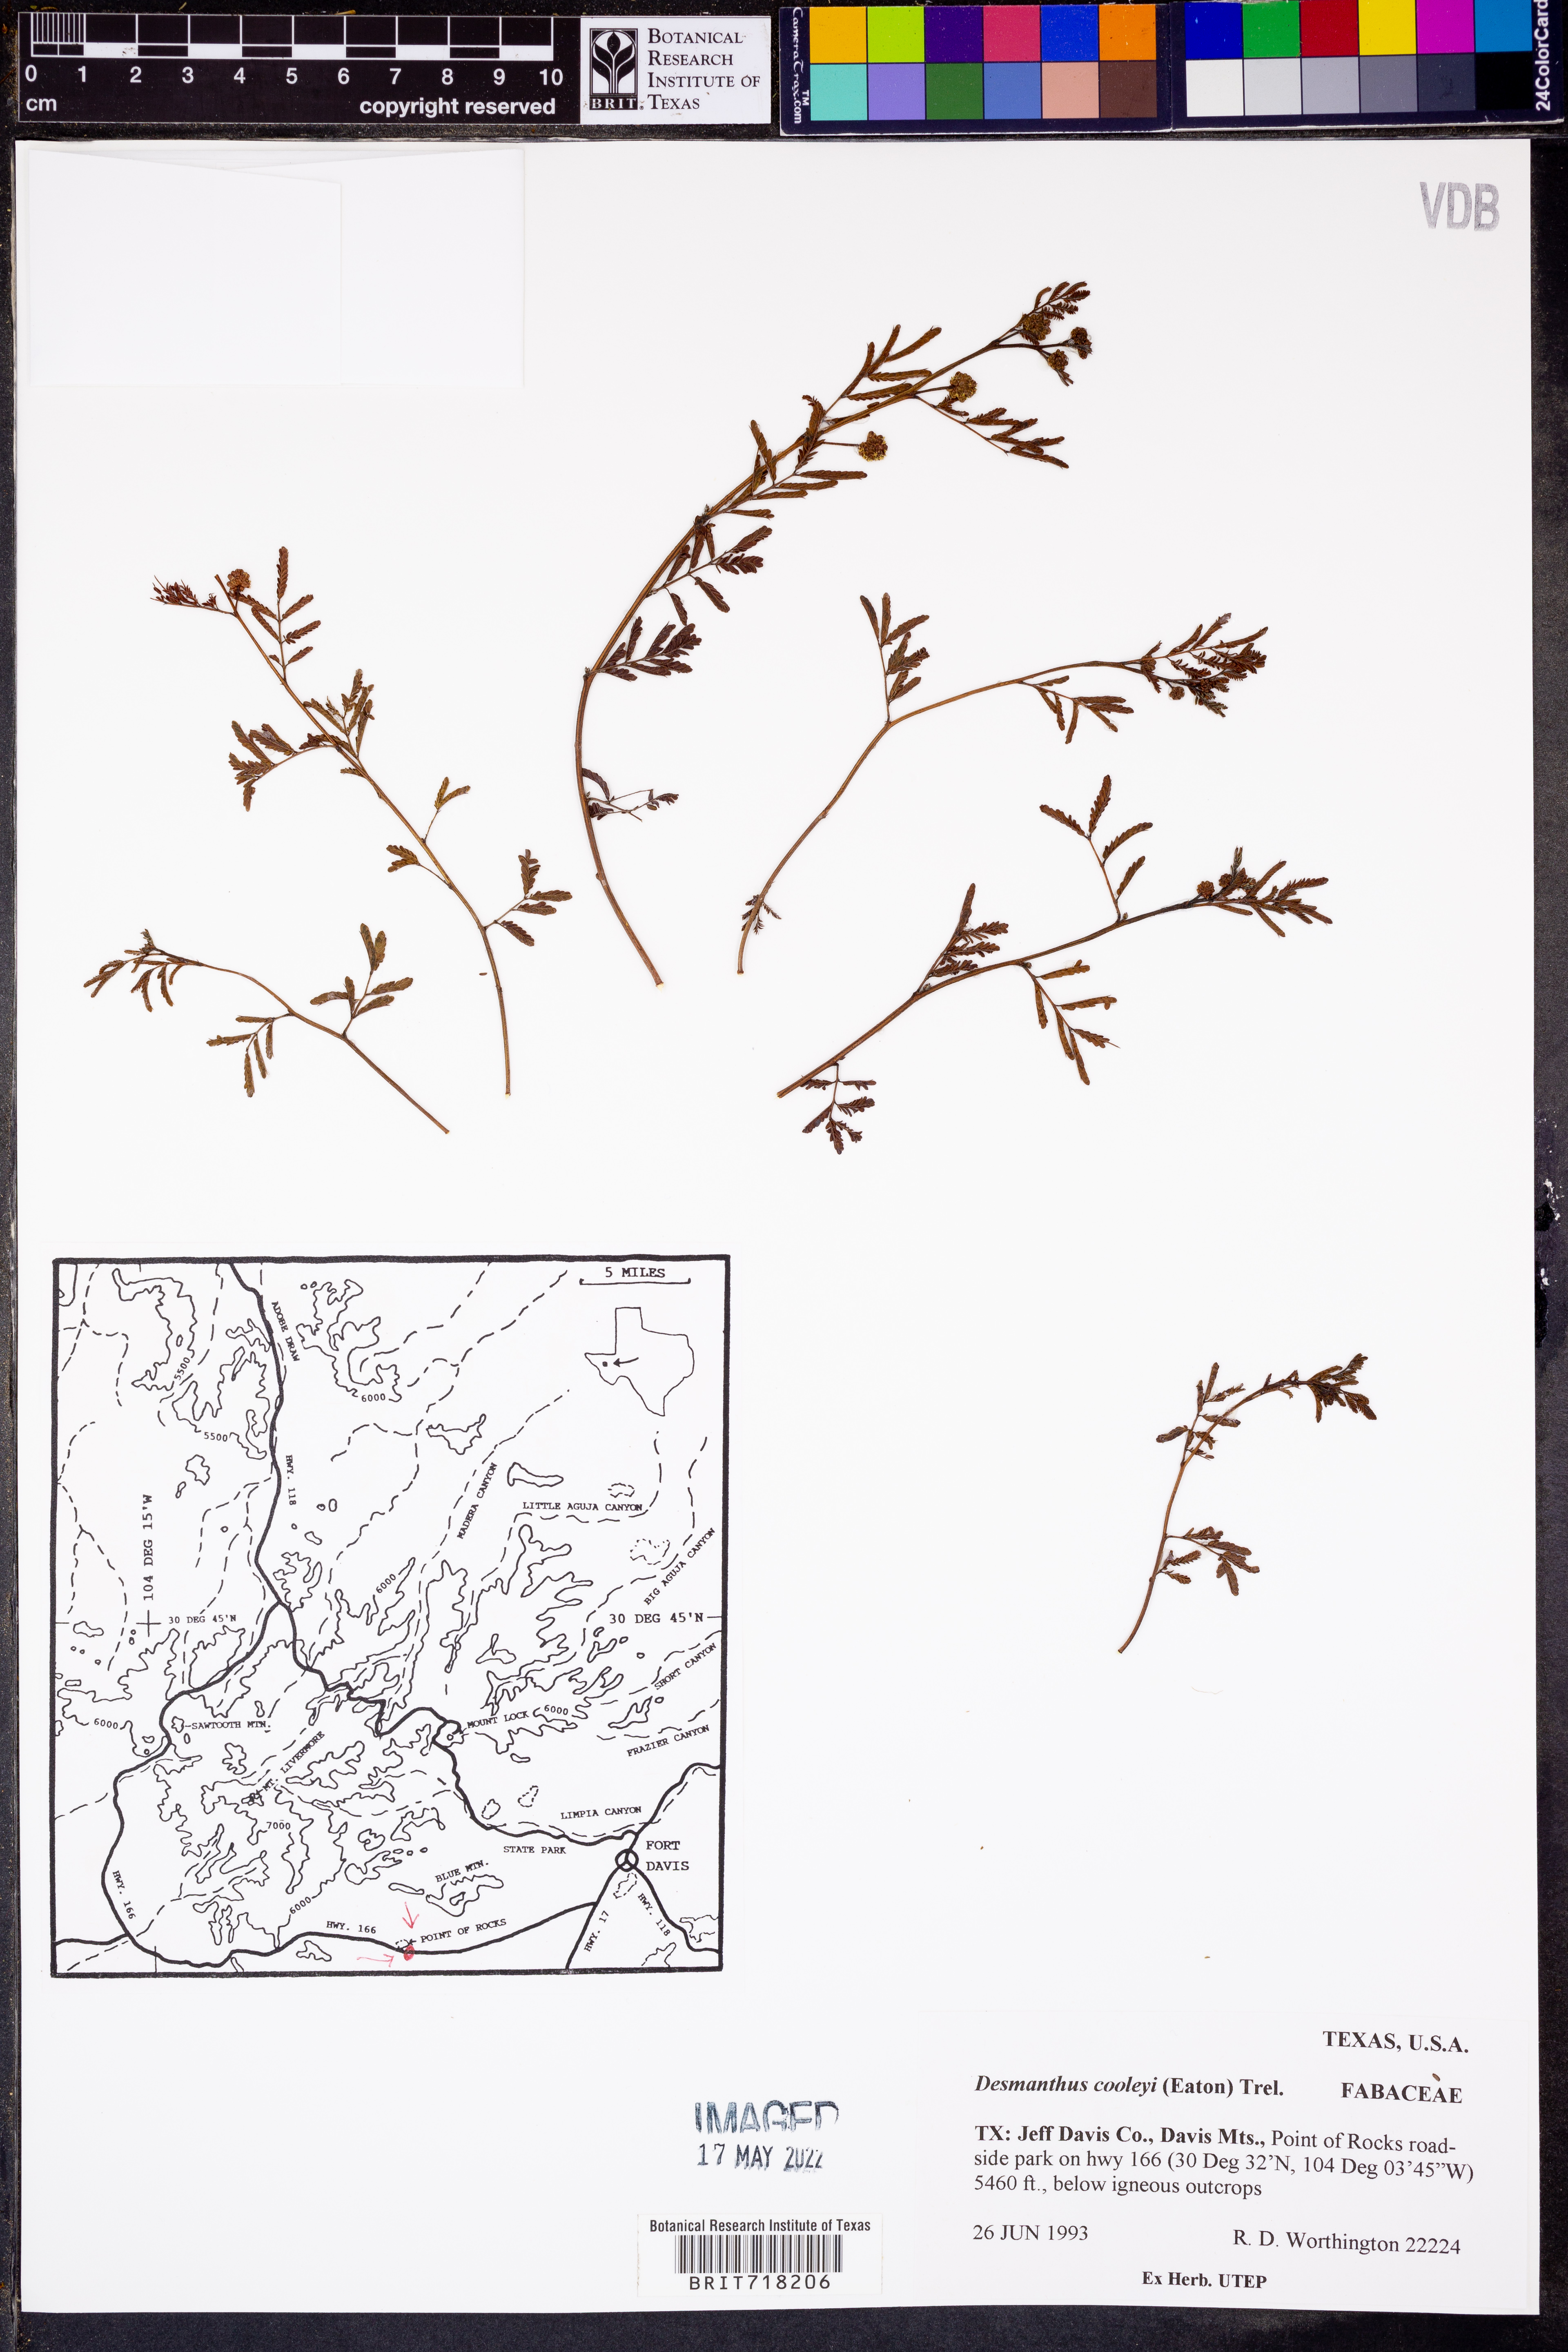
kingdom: Plantae
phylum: Tracheophyta
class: Magnoliopsida
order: Fabales
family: Fabaceae
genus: Desmanthus
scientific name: Desmanthus cooleyi
